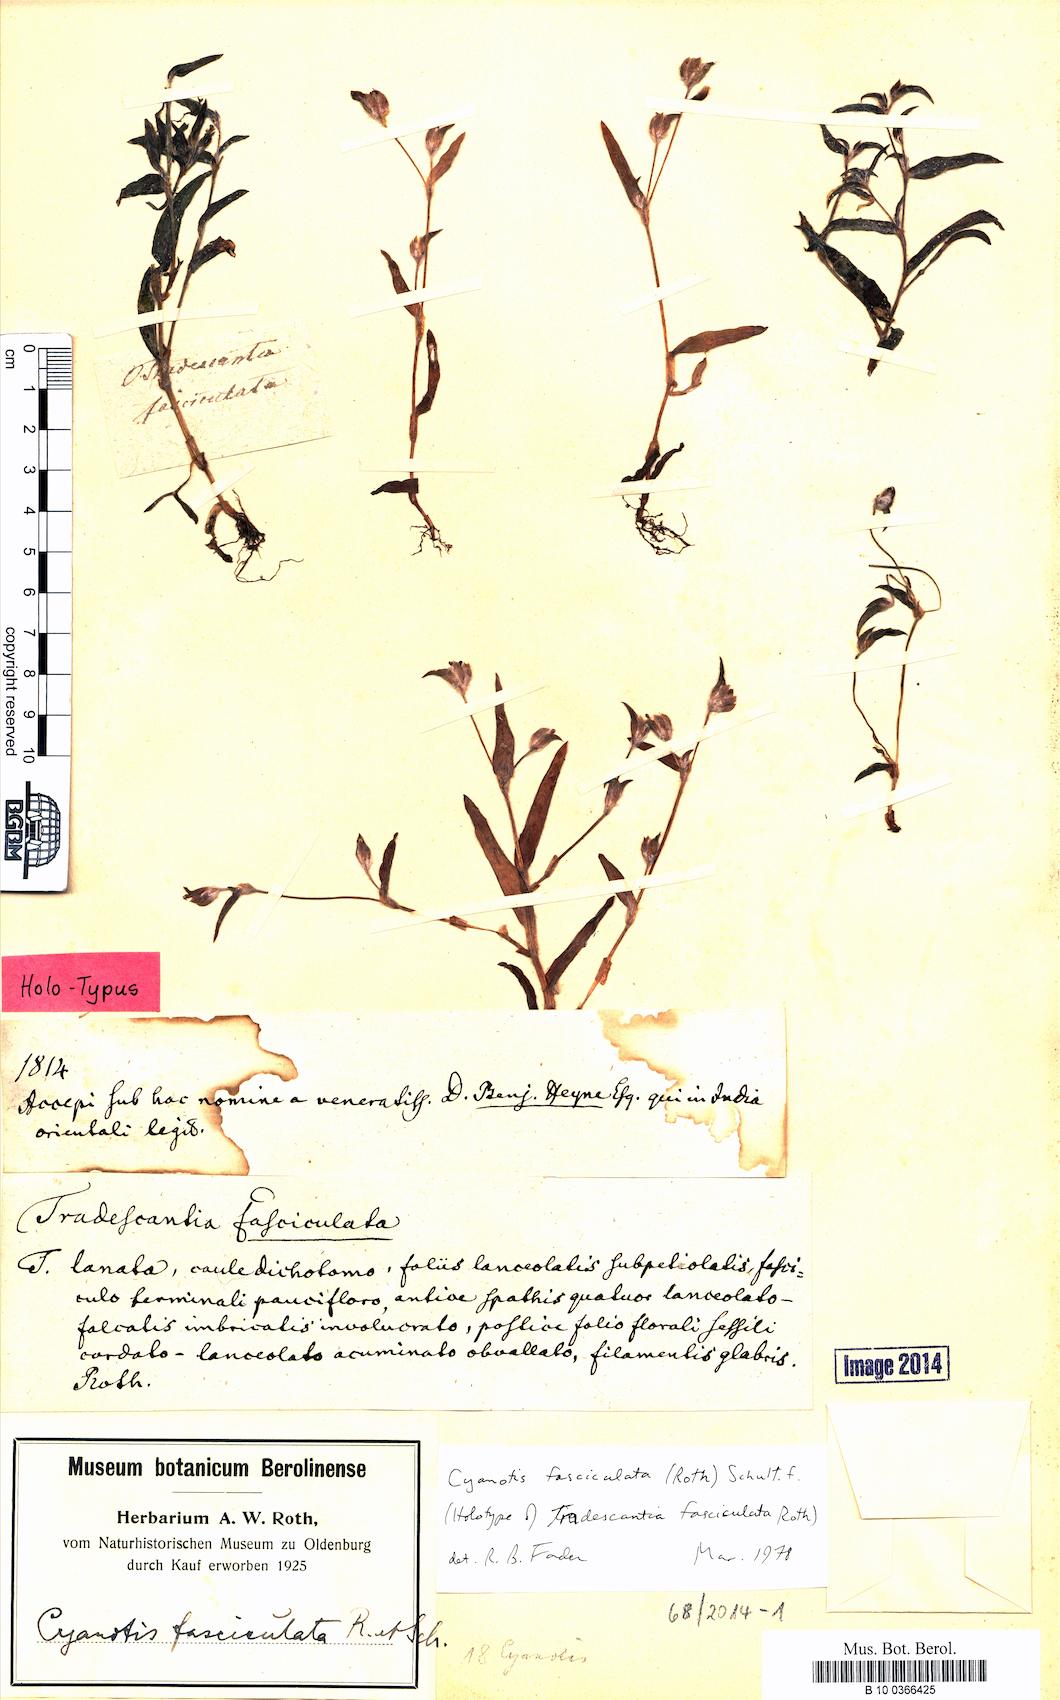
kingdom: Plantae
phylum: Tracheophyta
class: Liliopsida
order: Commelinales
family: Commelinaceae
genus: Cyanotis
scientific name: Cyanotis fasciculata
